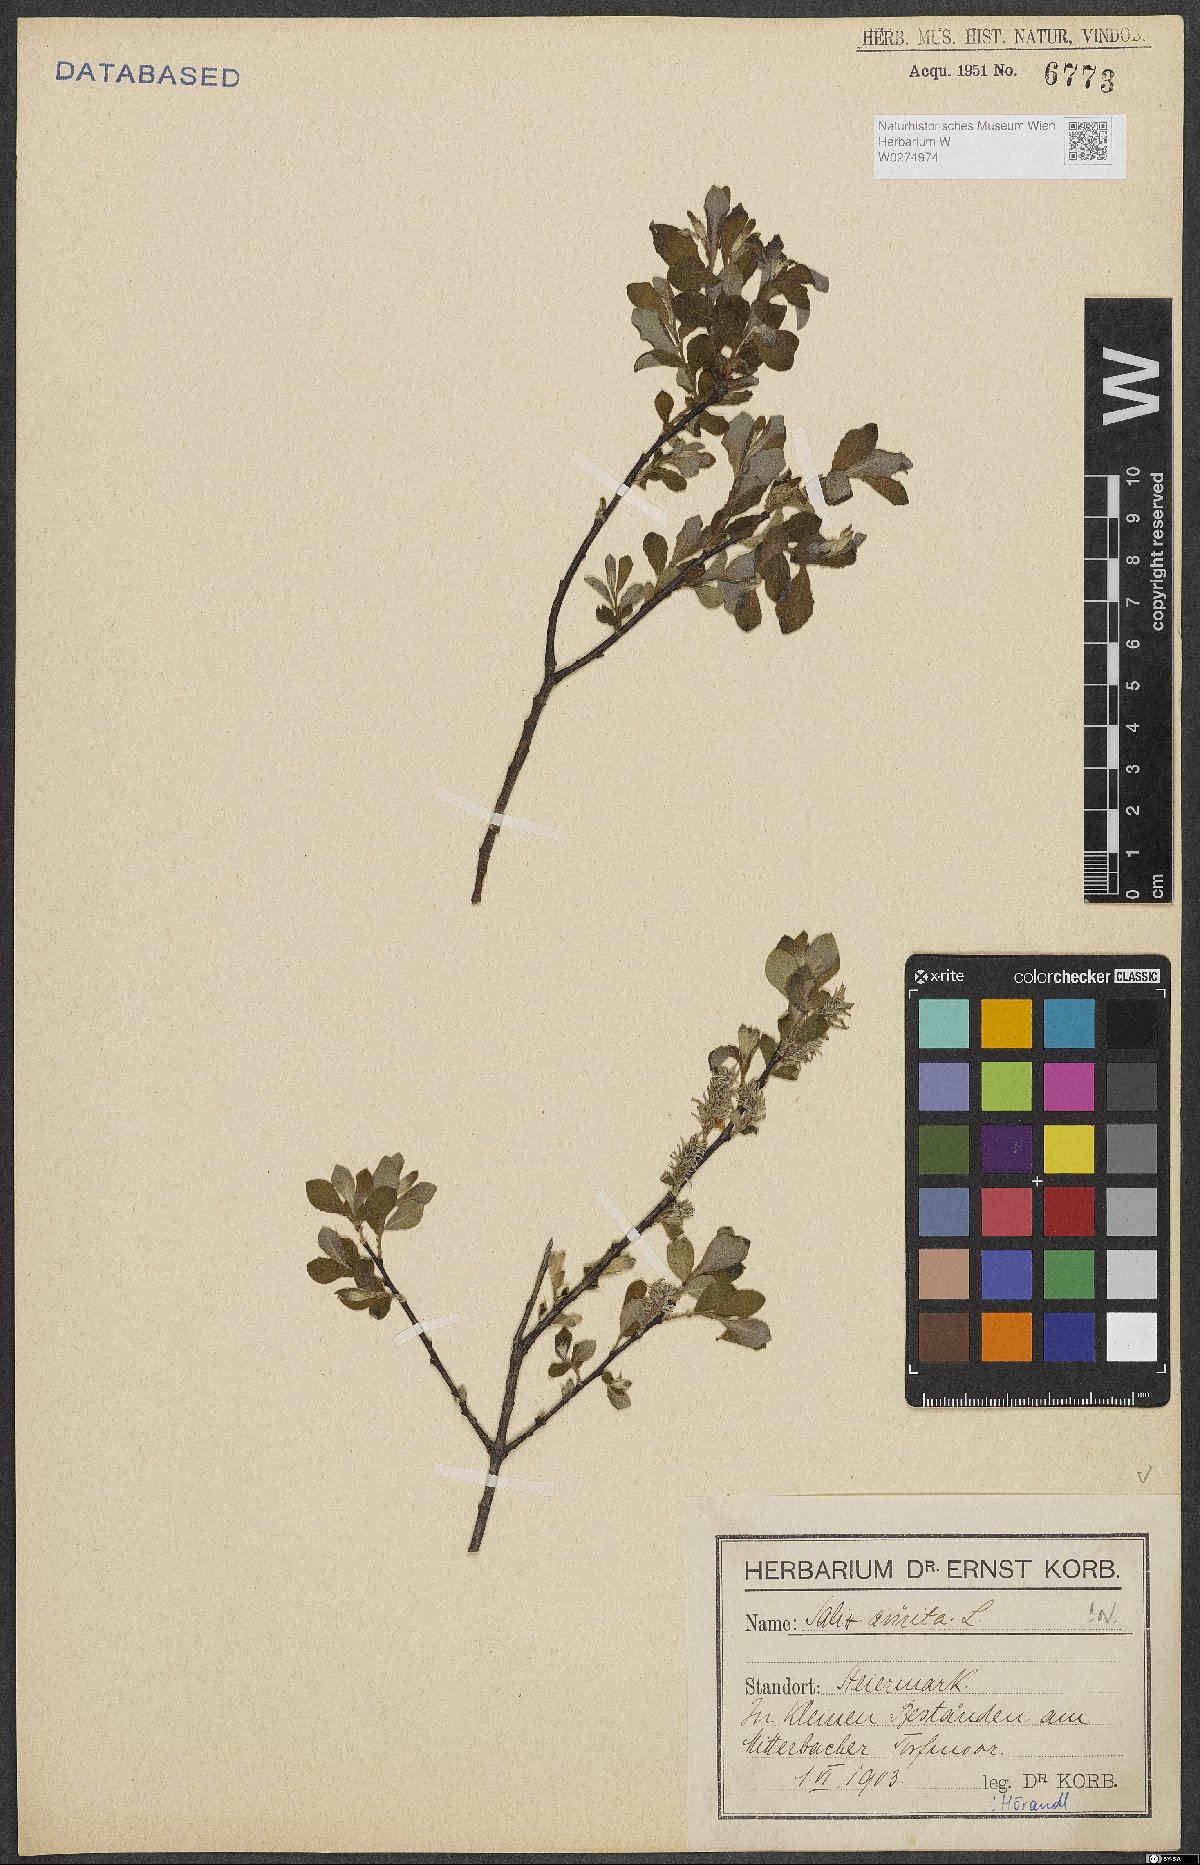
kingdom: Plantae
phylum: Tracheophyta
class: Magnoliopsida
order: Malpighiales
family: Salicaceae
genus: Salix
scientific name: Salix aurita
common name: Eared willow
